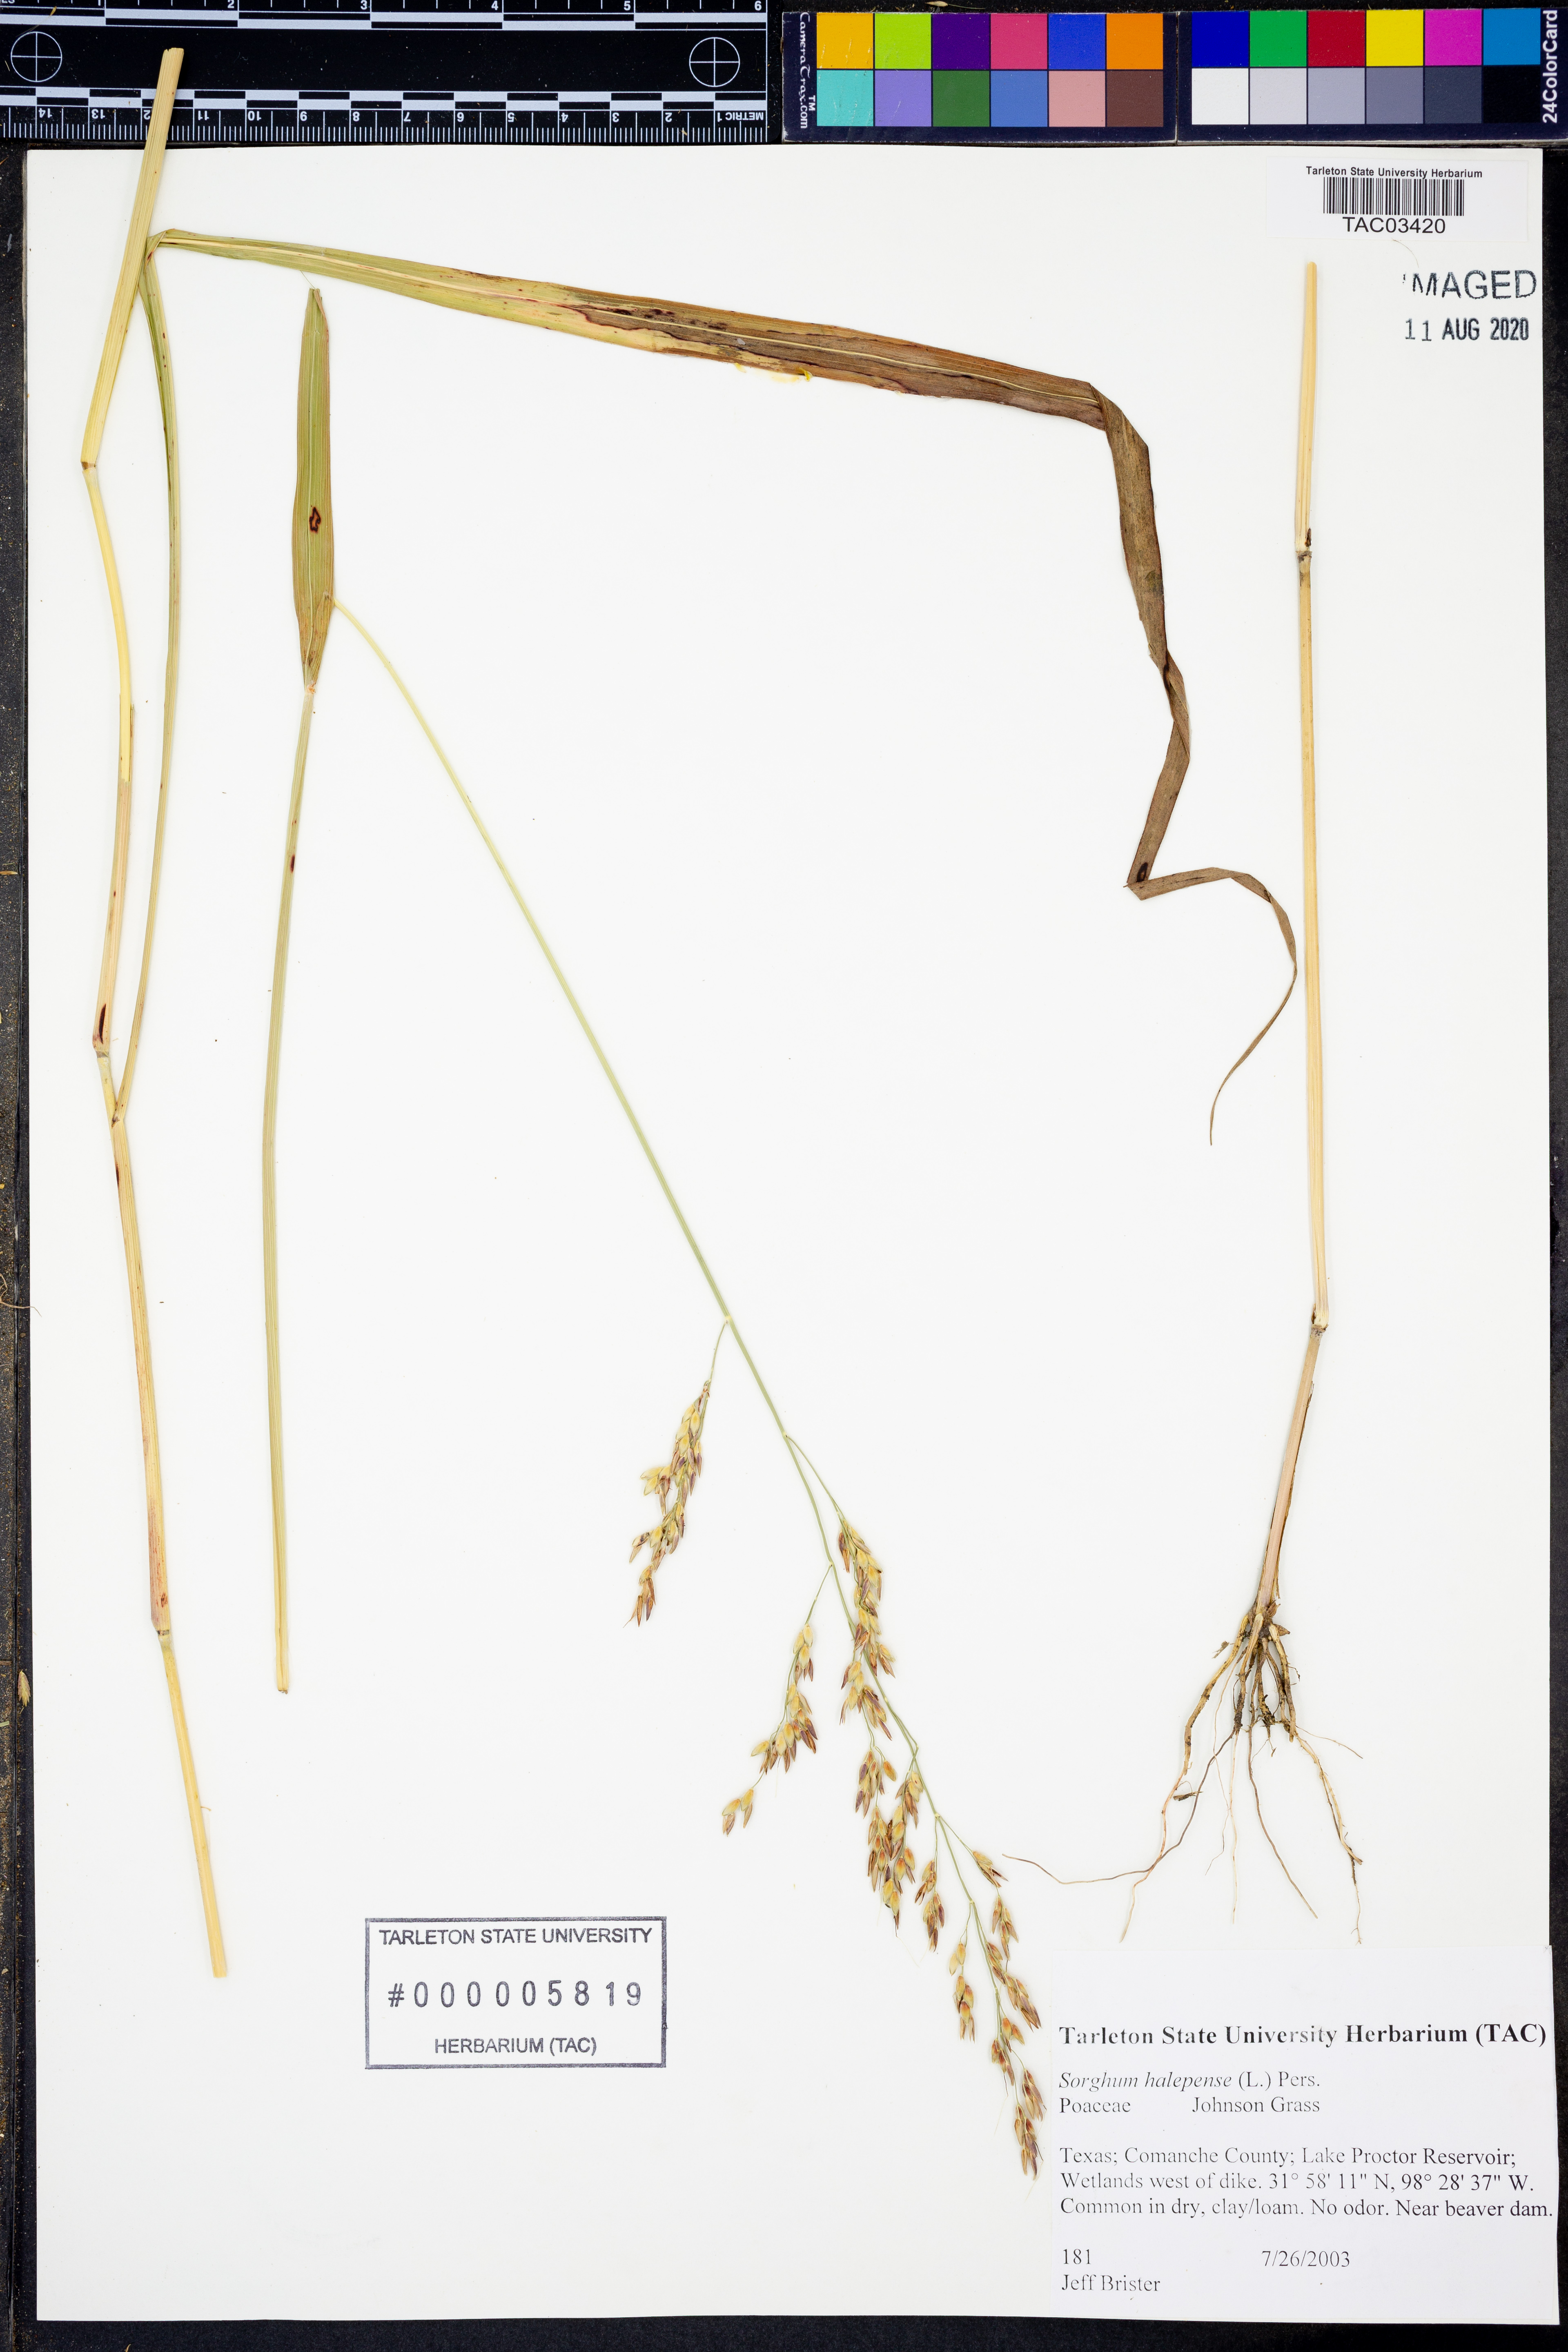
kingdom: Plantae
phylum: Tracheophyta
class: Liliopsida
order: Poales
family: Poaceae
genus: Sorghum
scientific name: Sorghum halepense
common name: Johnson-grass
